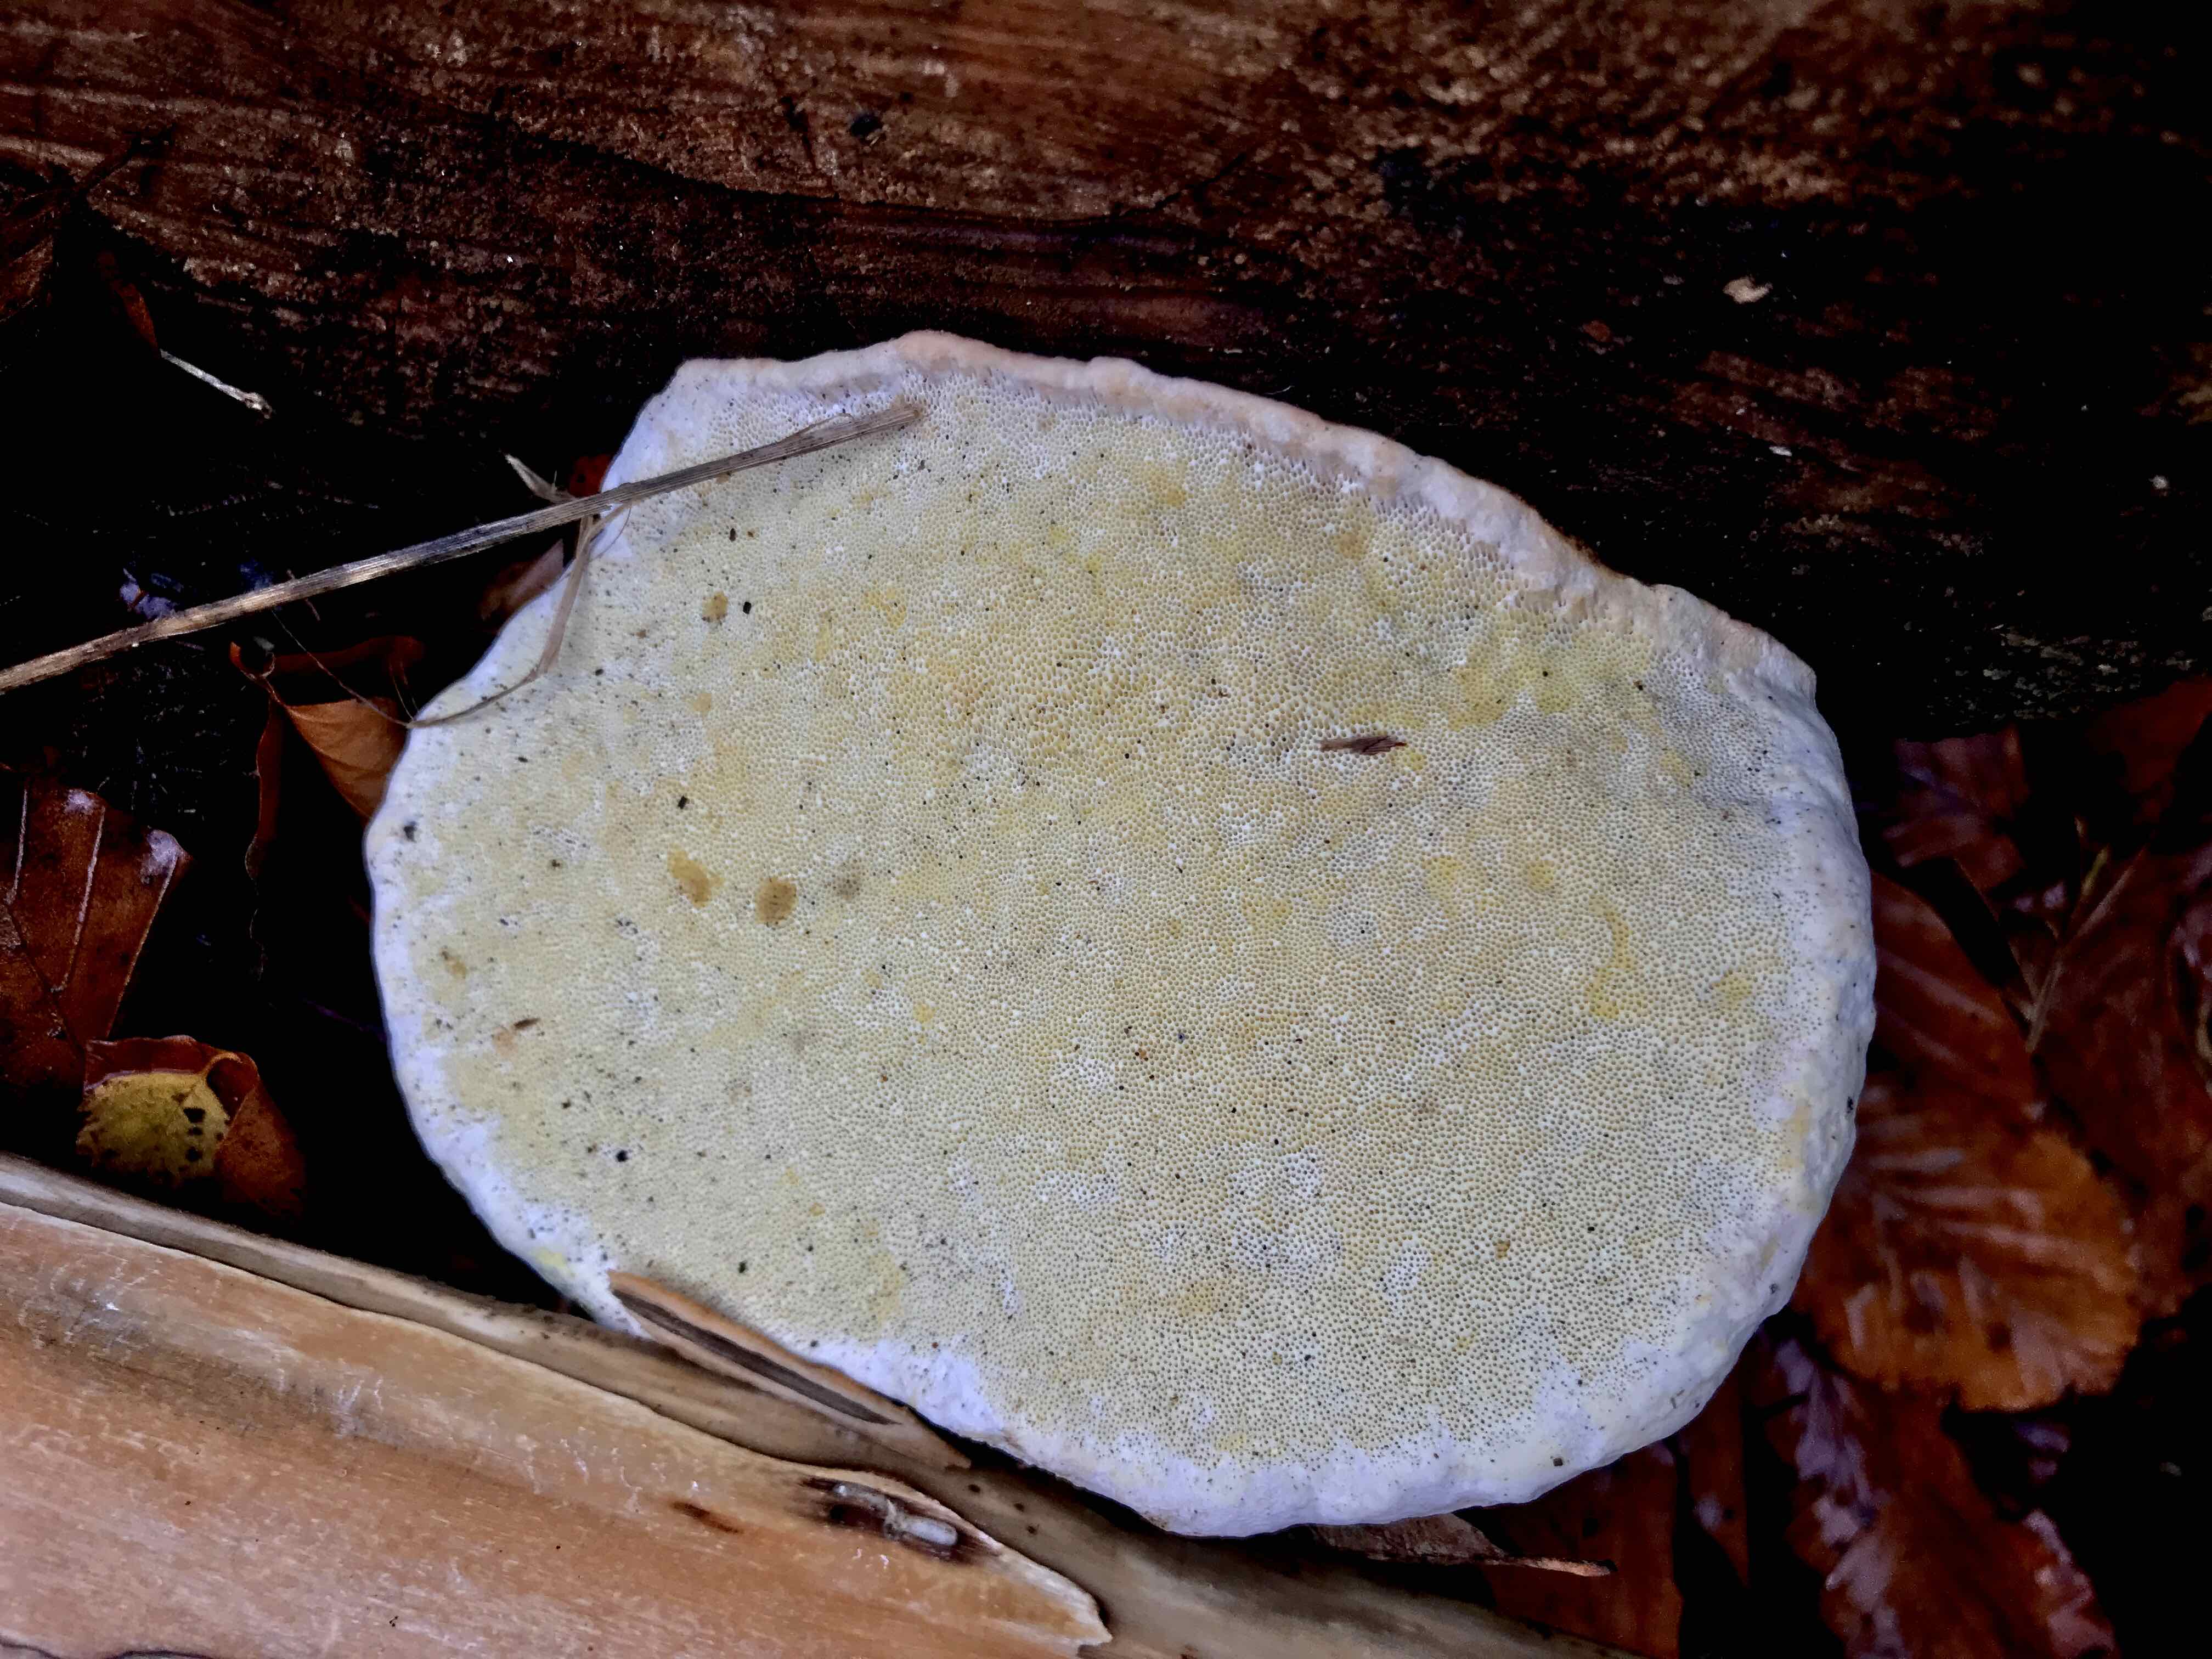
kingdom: Fungi
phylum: Basidiomycota
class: Agaricomycetes
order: Polyporales
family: Fomitopsidaceae
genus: Fomitopsis
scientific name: Fomitopsis pinicola
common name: randbæltet hovporesvamp
